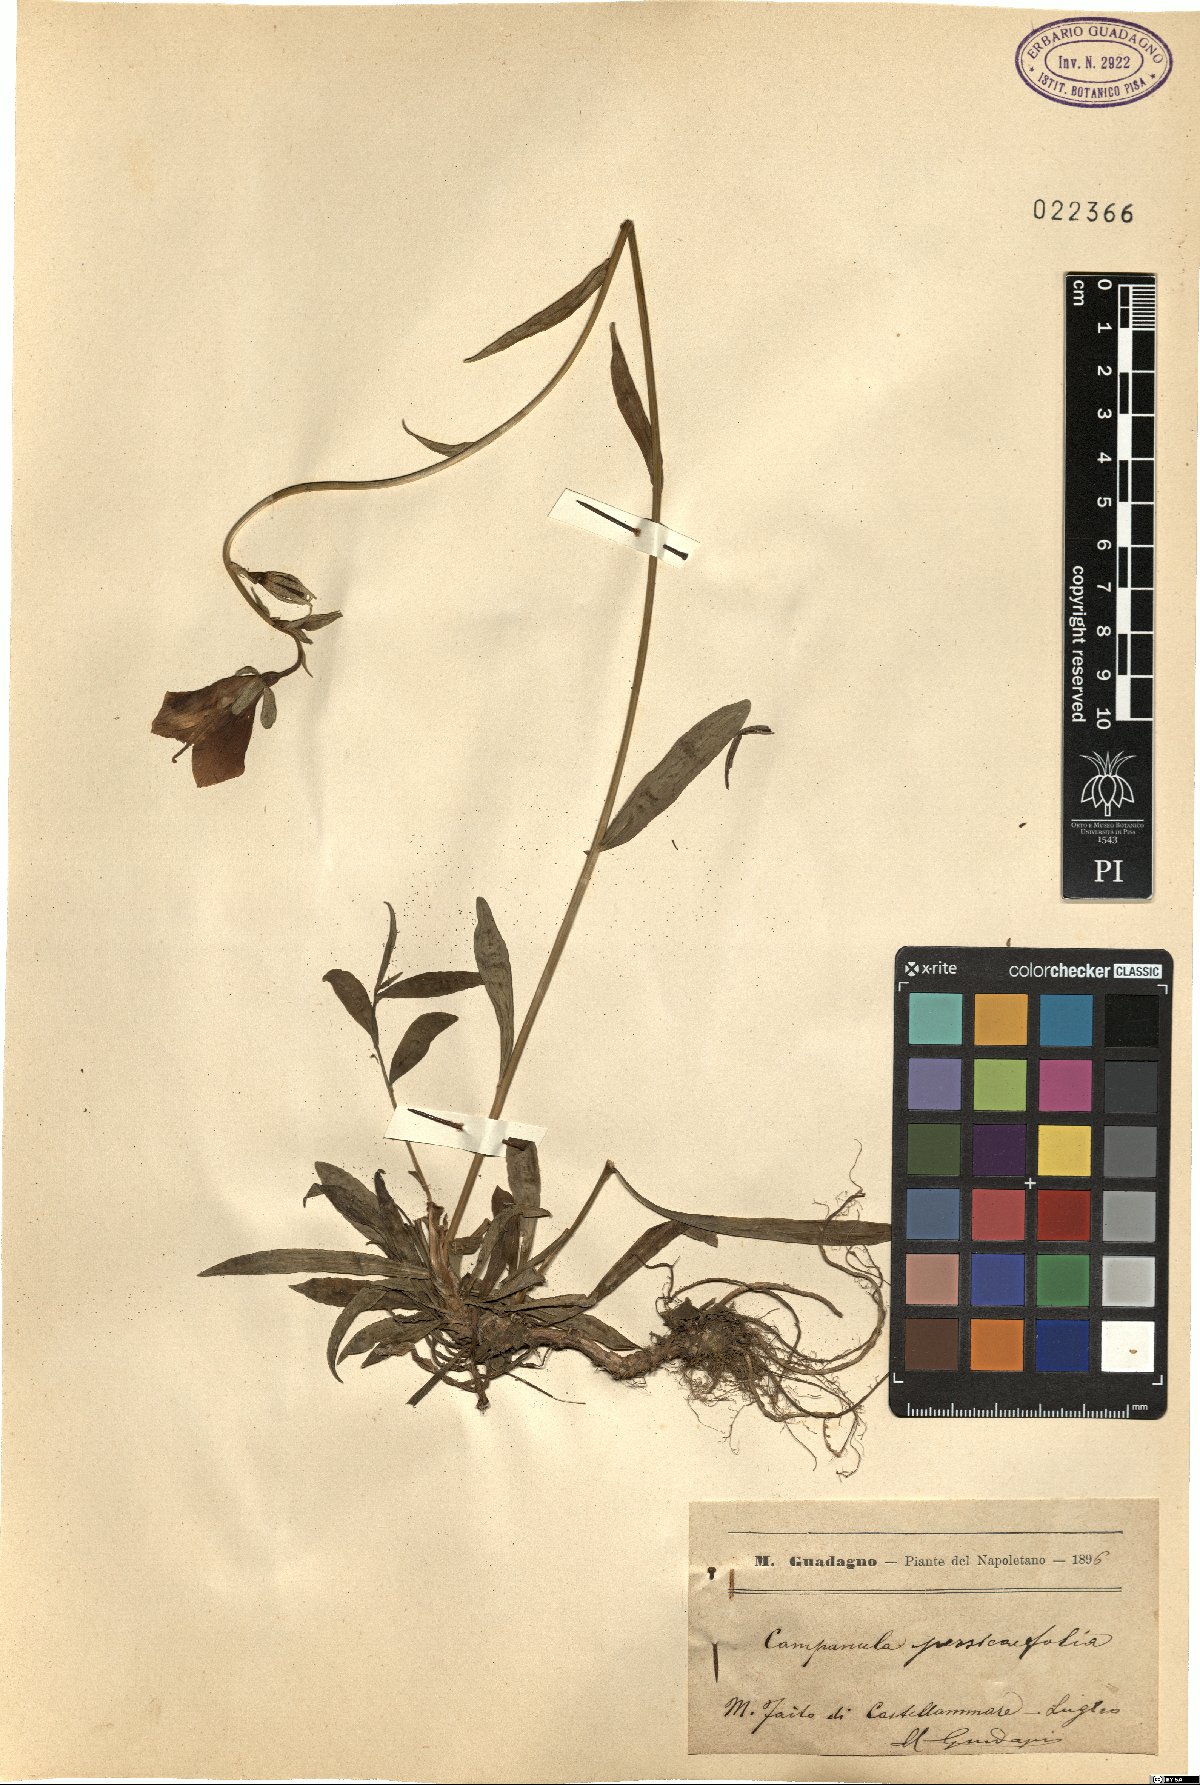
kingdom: Plantae
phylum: Tracheophyta
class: Magnoliopsida
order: Asterales
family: Campanulaceae
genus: Campanula
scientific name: Campanula persicifolia
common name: Peach-leaved bellflower
